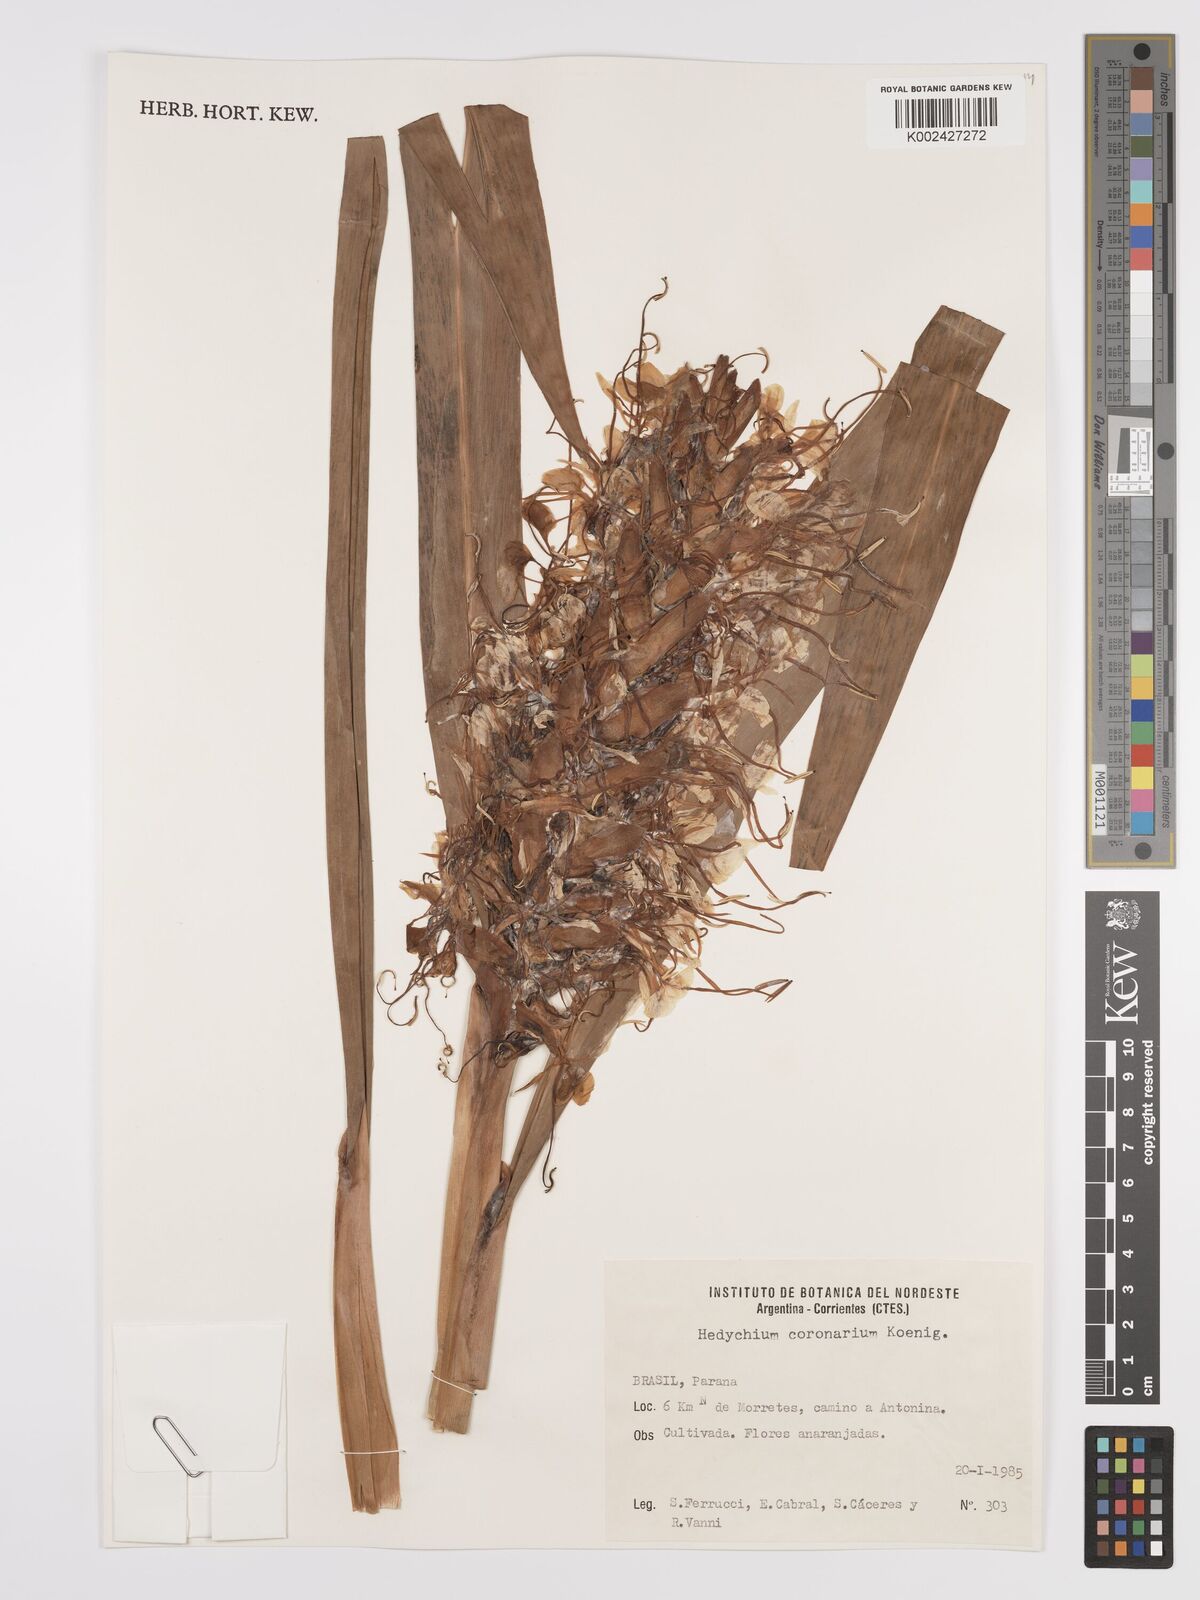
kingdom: Plantae
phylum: Tracheophyta
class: Liliopsida
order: Zingiberales
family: Zingiberaceae
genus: Hedychium
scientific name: Hedychium coccineum
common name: Red ginger-lily
